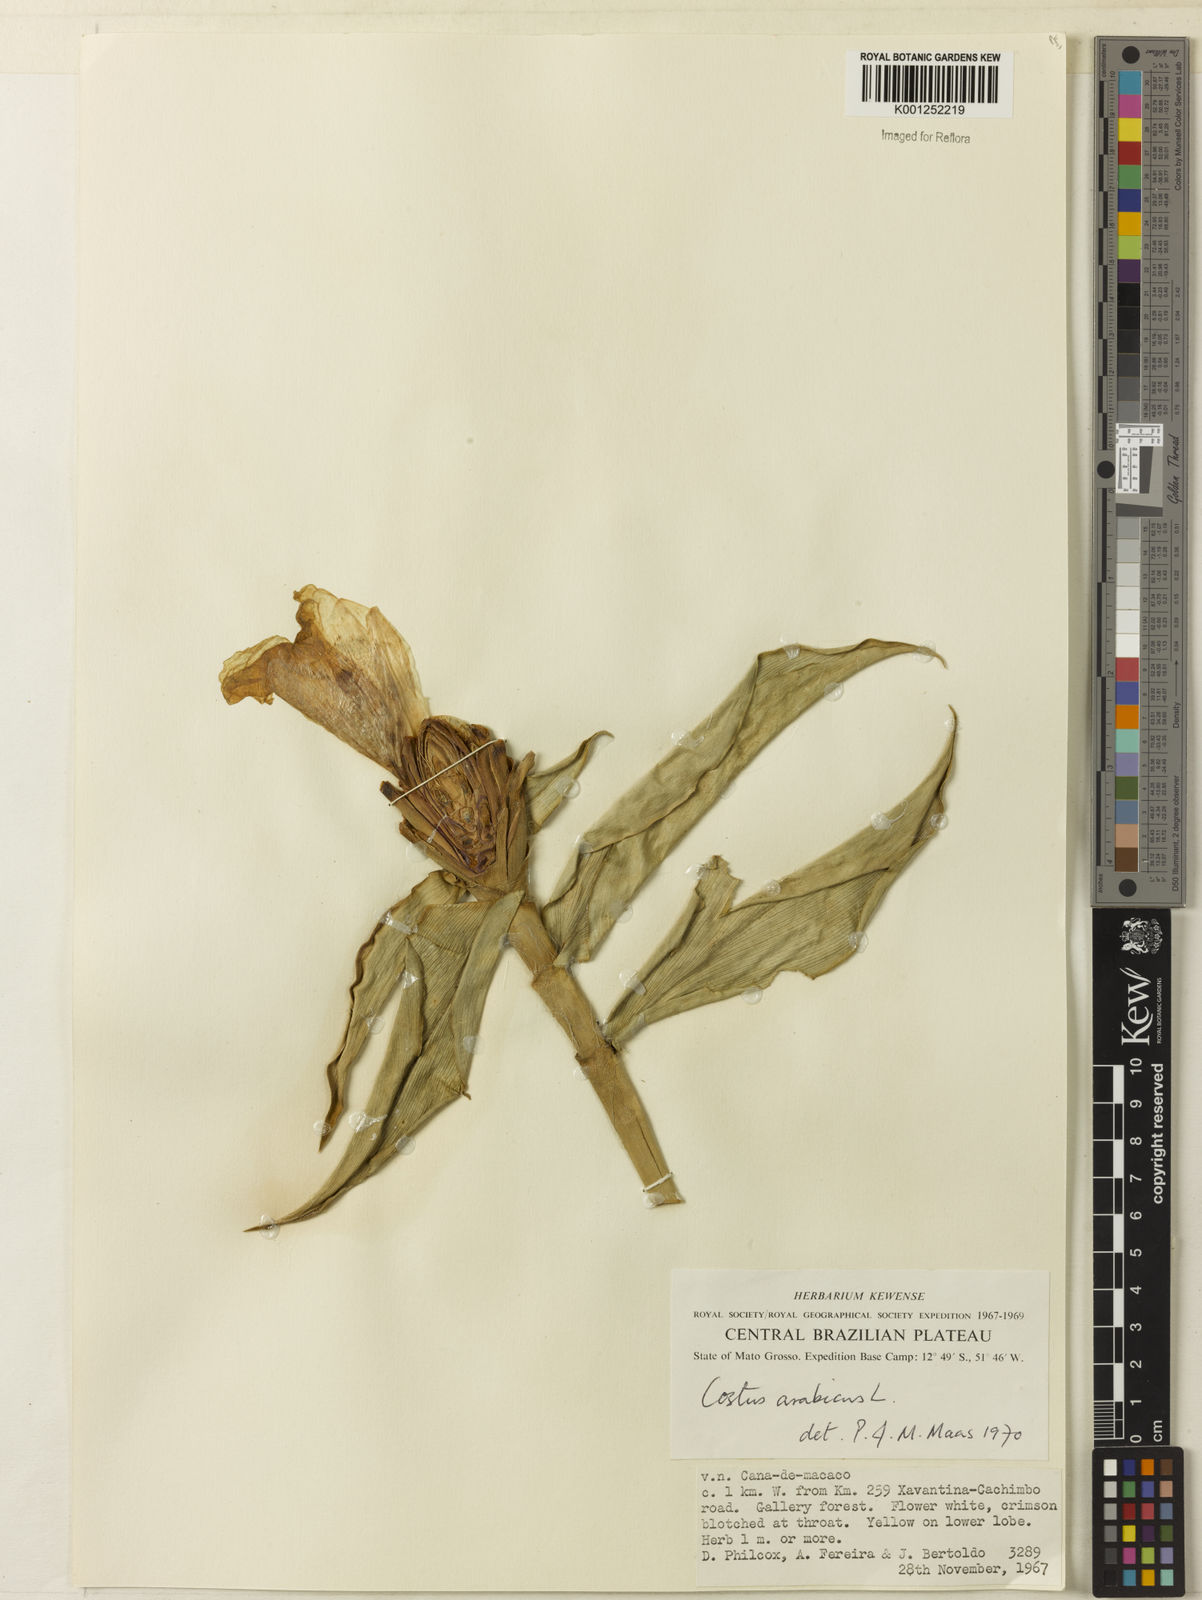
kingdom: Plantae
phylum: Tracheophyta
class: Liliopsida
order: Zingiberales
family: Costaceae
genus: Costus
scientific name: Costus arabicus
